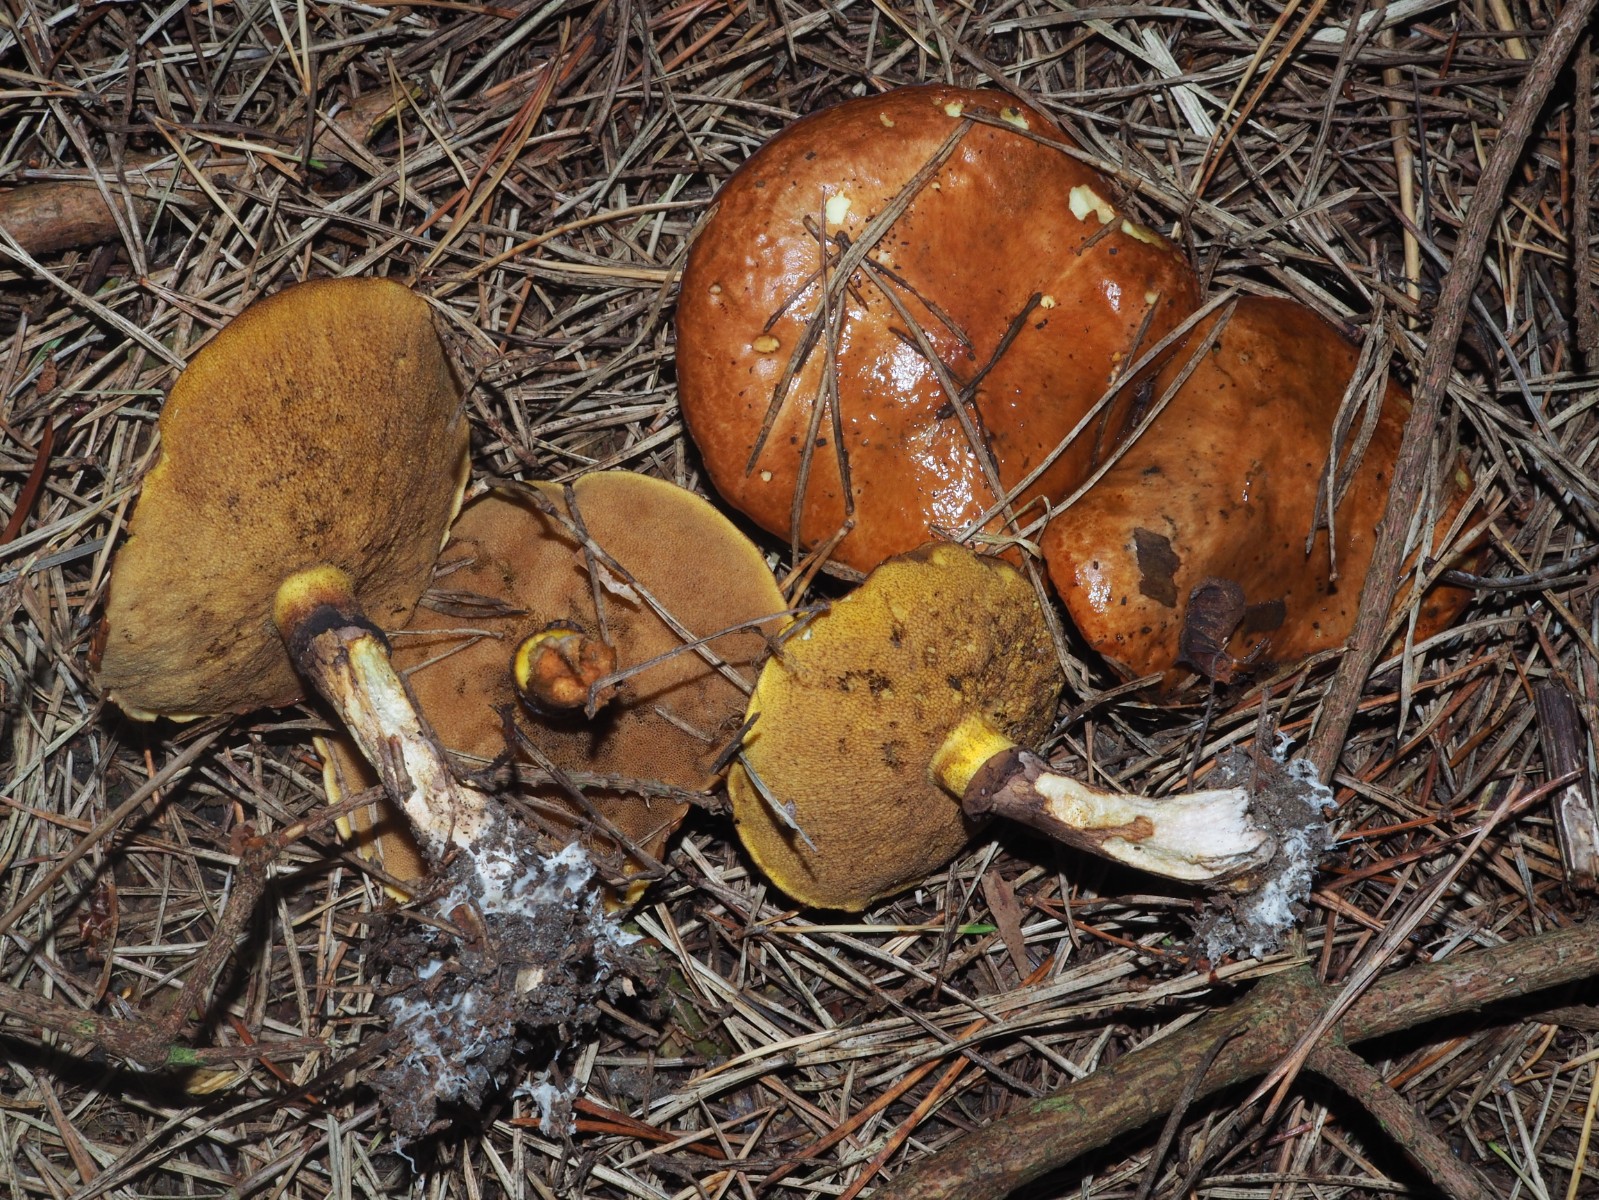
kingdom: Fungi
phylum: Basidiomycota
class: Agaricomycetes
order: Boletales
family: Suillaceae
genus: Suillus
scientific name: Suillus luteus
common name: brungul slimrørhat
